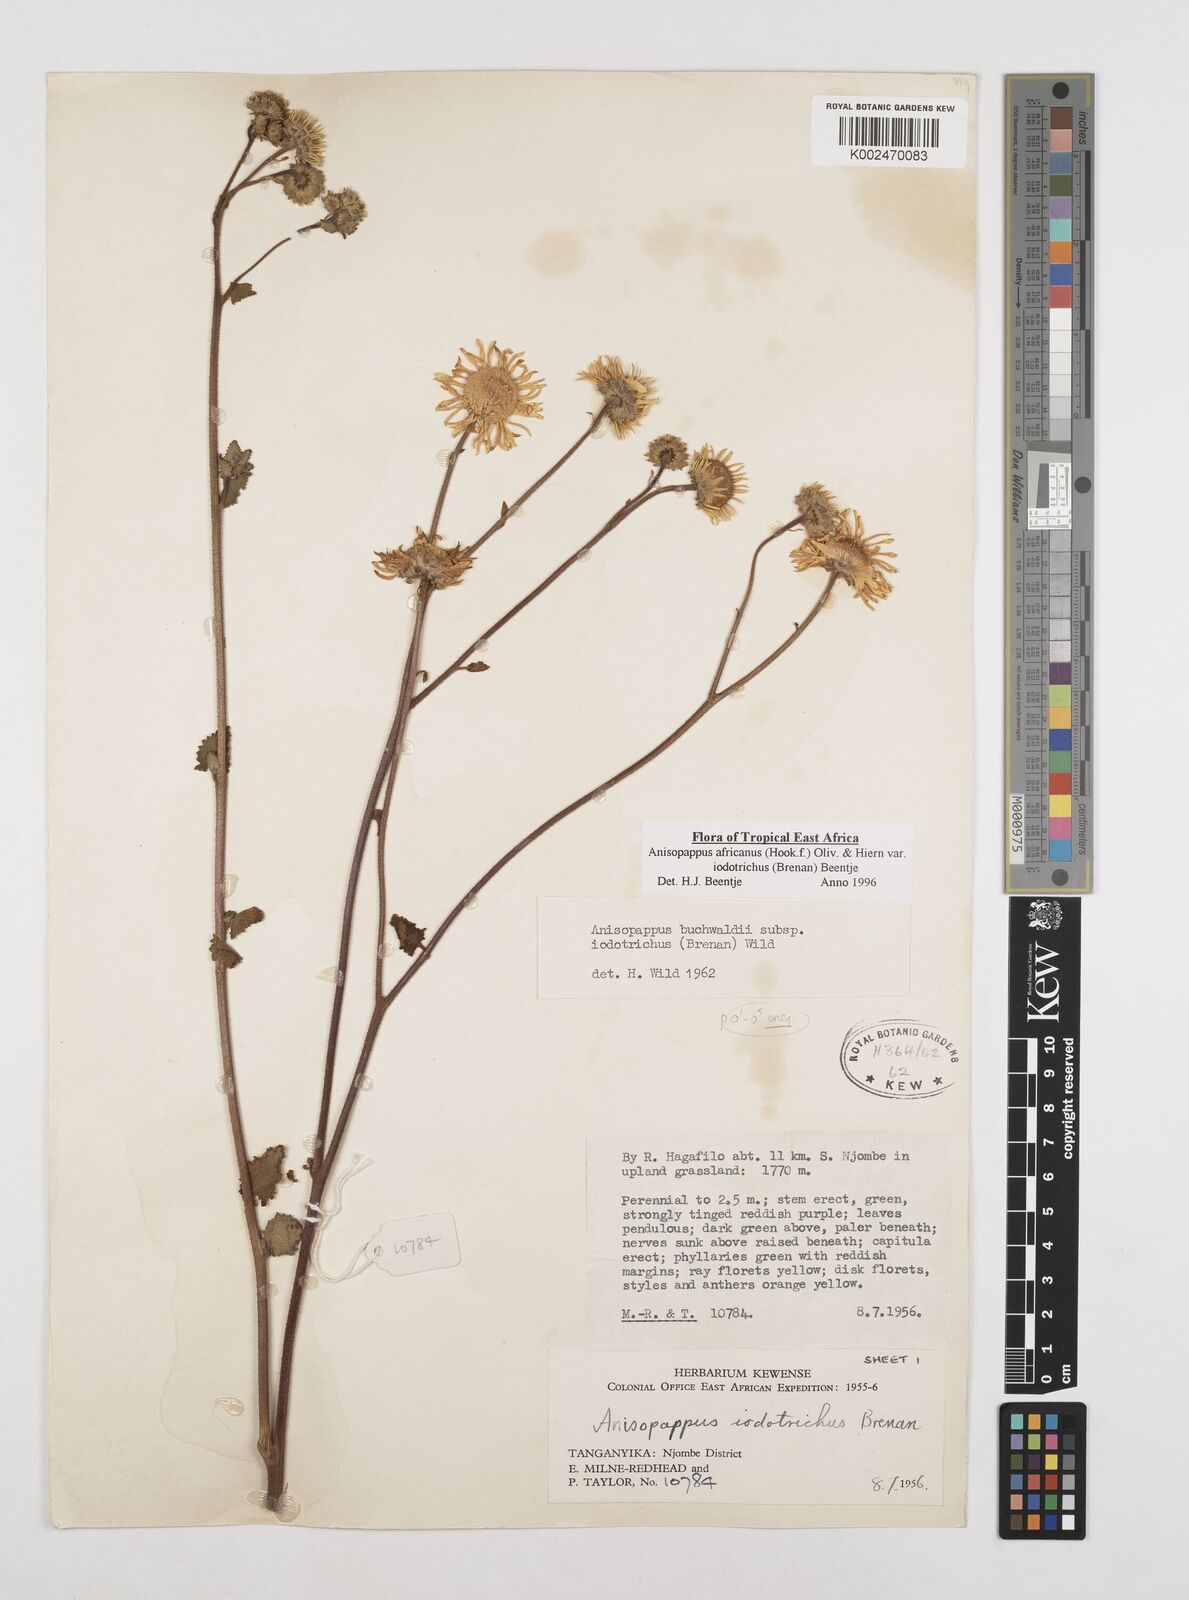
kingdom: Plantae
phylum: Tracheophyta
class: Magnoliopsida
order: Asterales
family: Asteraceae
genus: Anisopappus
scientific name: Anisopappus buchwaldii
